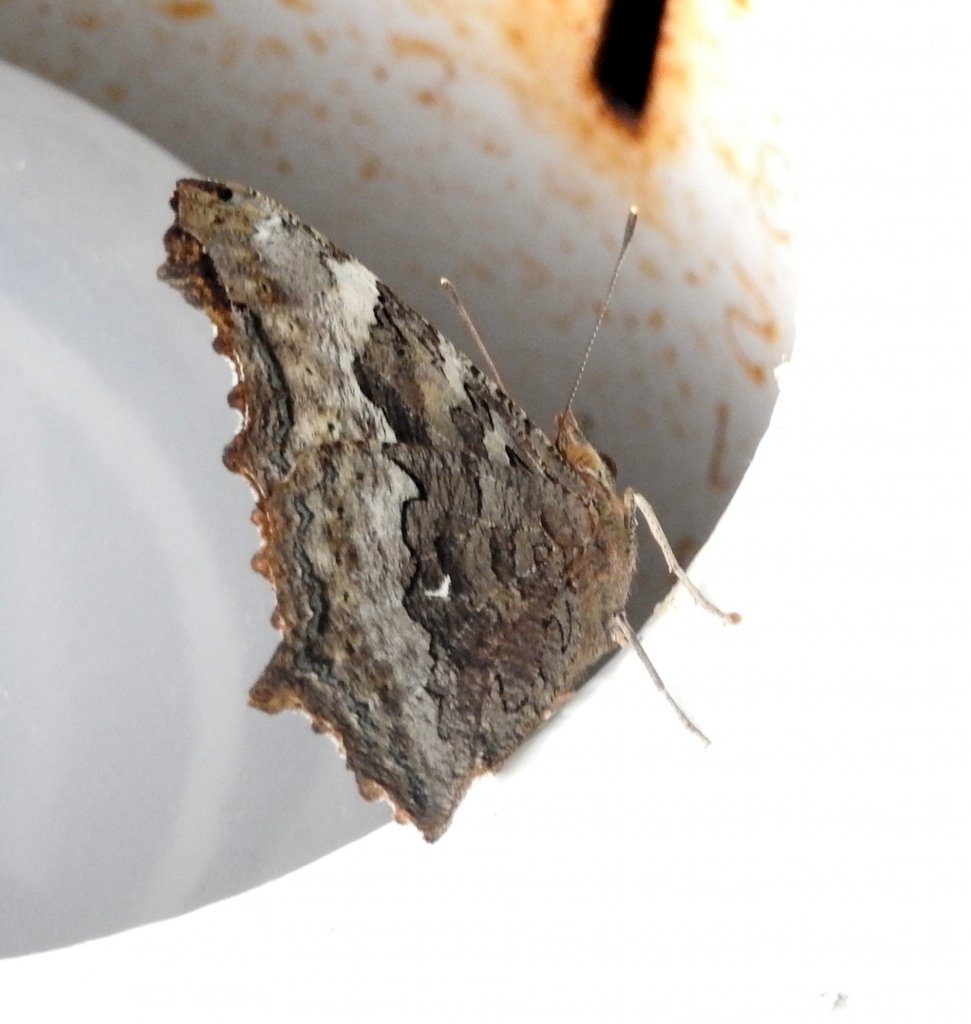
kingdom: Animalia
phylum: Arthropoda
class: Insecta
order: Lepidoptera
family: Nymphalidae
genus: Polygonia
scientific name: Polygonia vaualbum
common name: Compton Tortoiseshell
